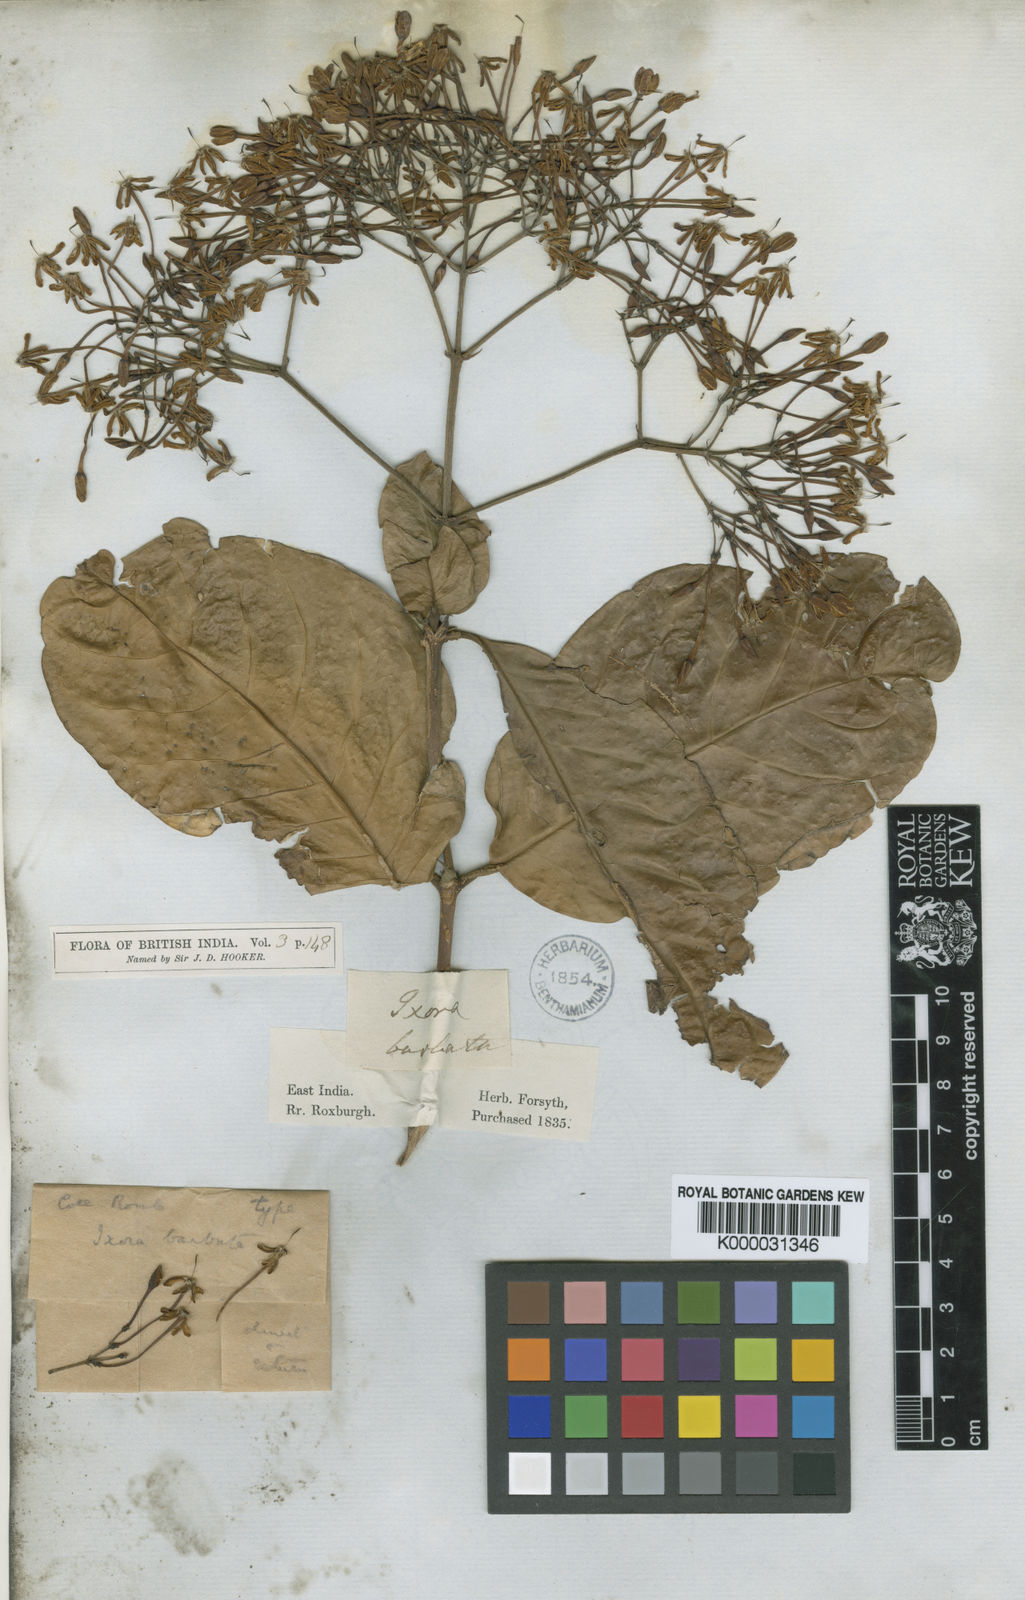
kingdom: Plantae
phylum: Tracheophyta
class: Magnoliopsida
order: Gentianales
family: Rubiaceae
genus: Ixora
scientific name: Ixora
